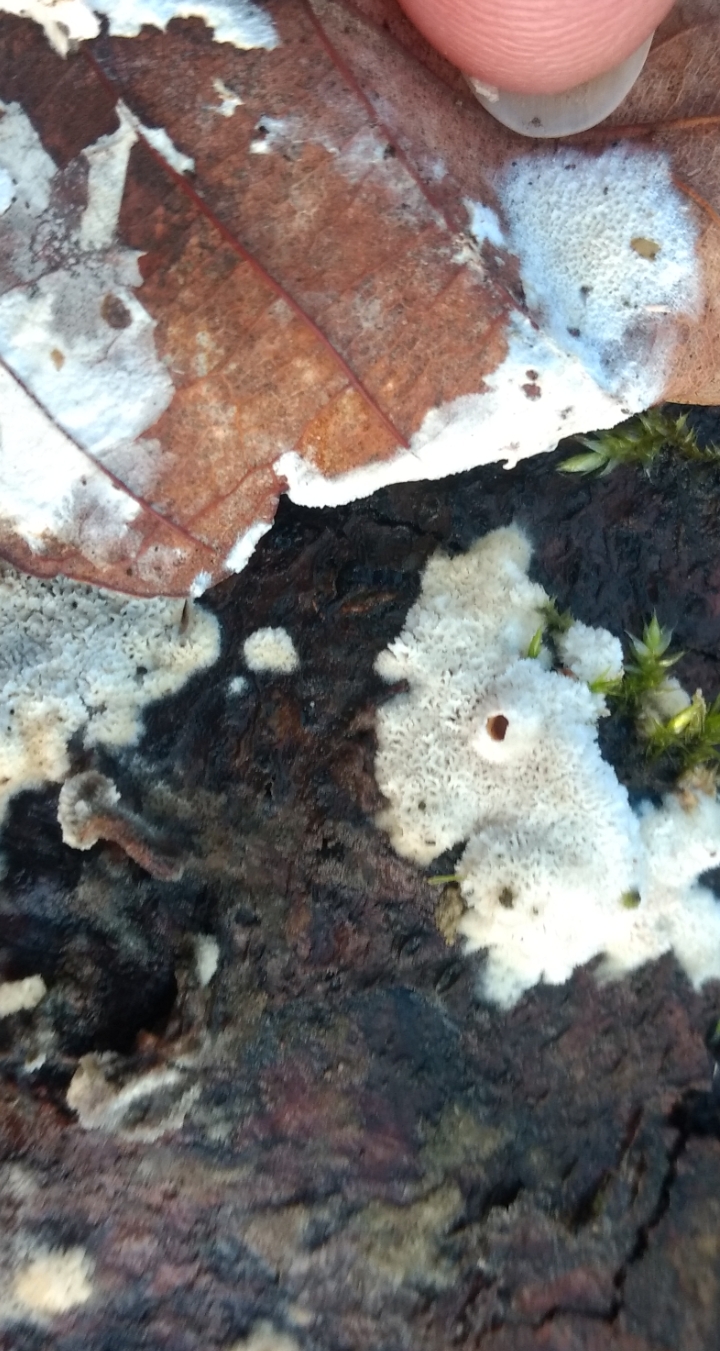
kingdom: Fungi
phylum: Basidiomycota
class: Agaricomycetes
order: Polyporales
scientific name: Polyporales
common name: poresvampordenen
